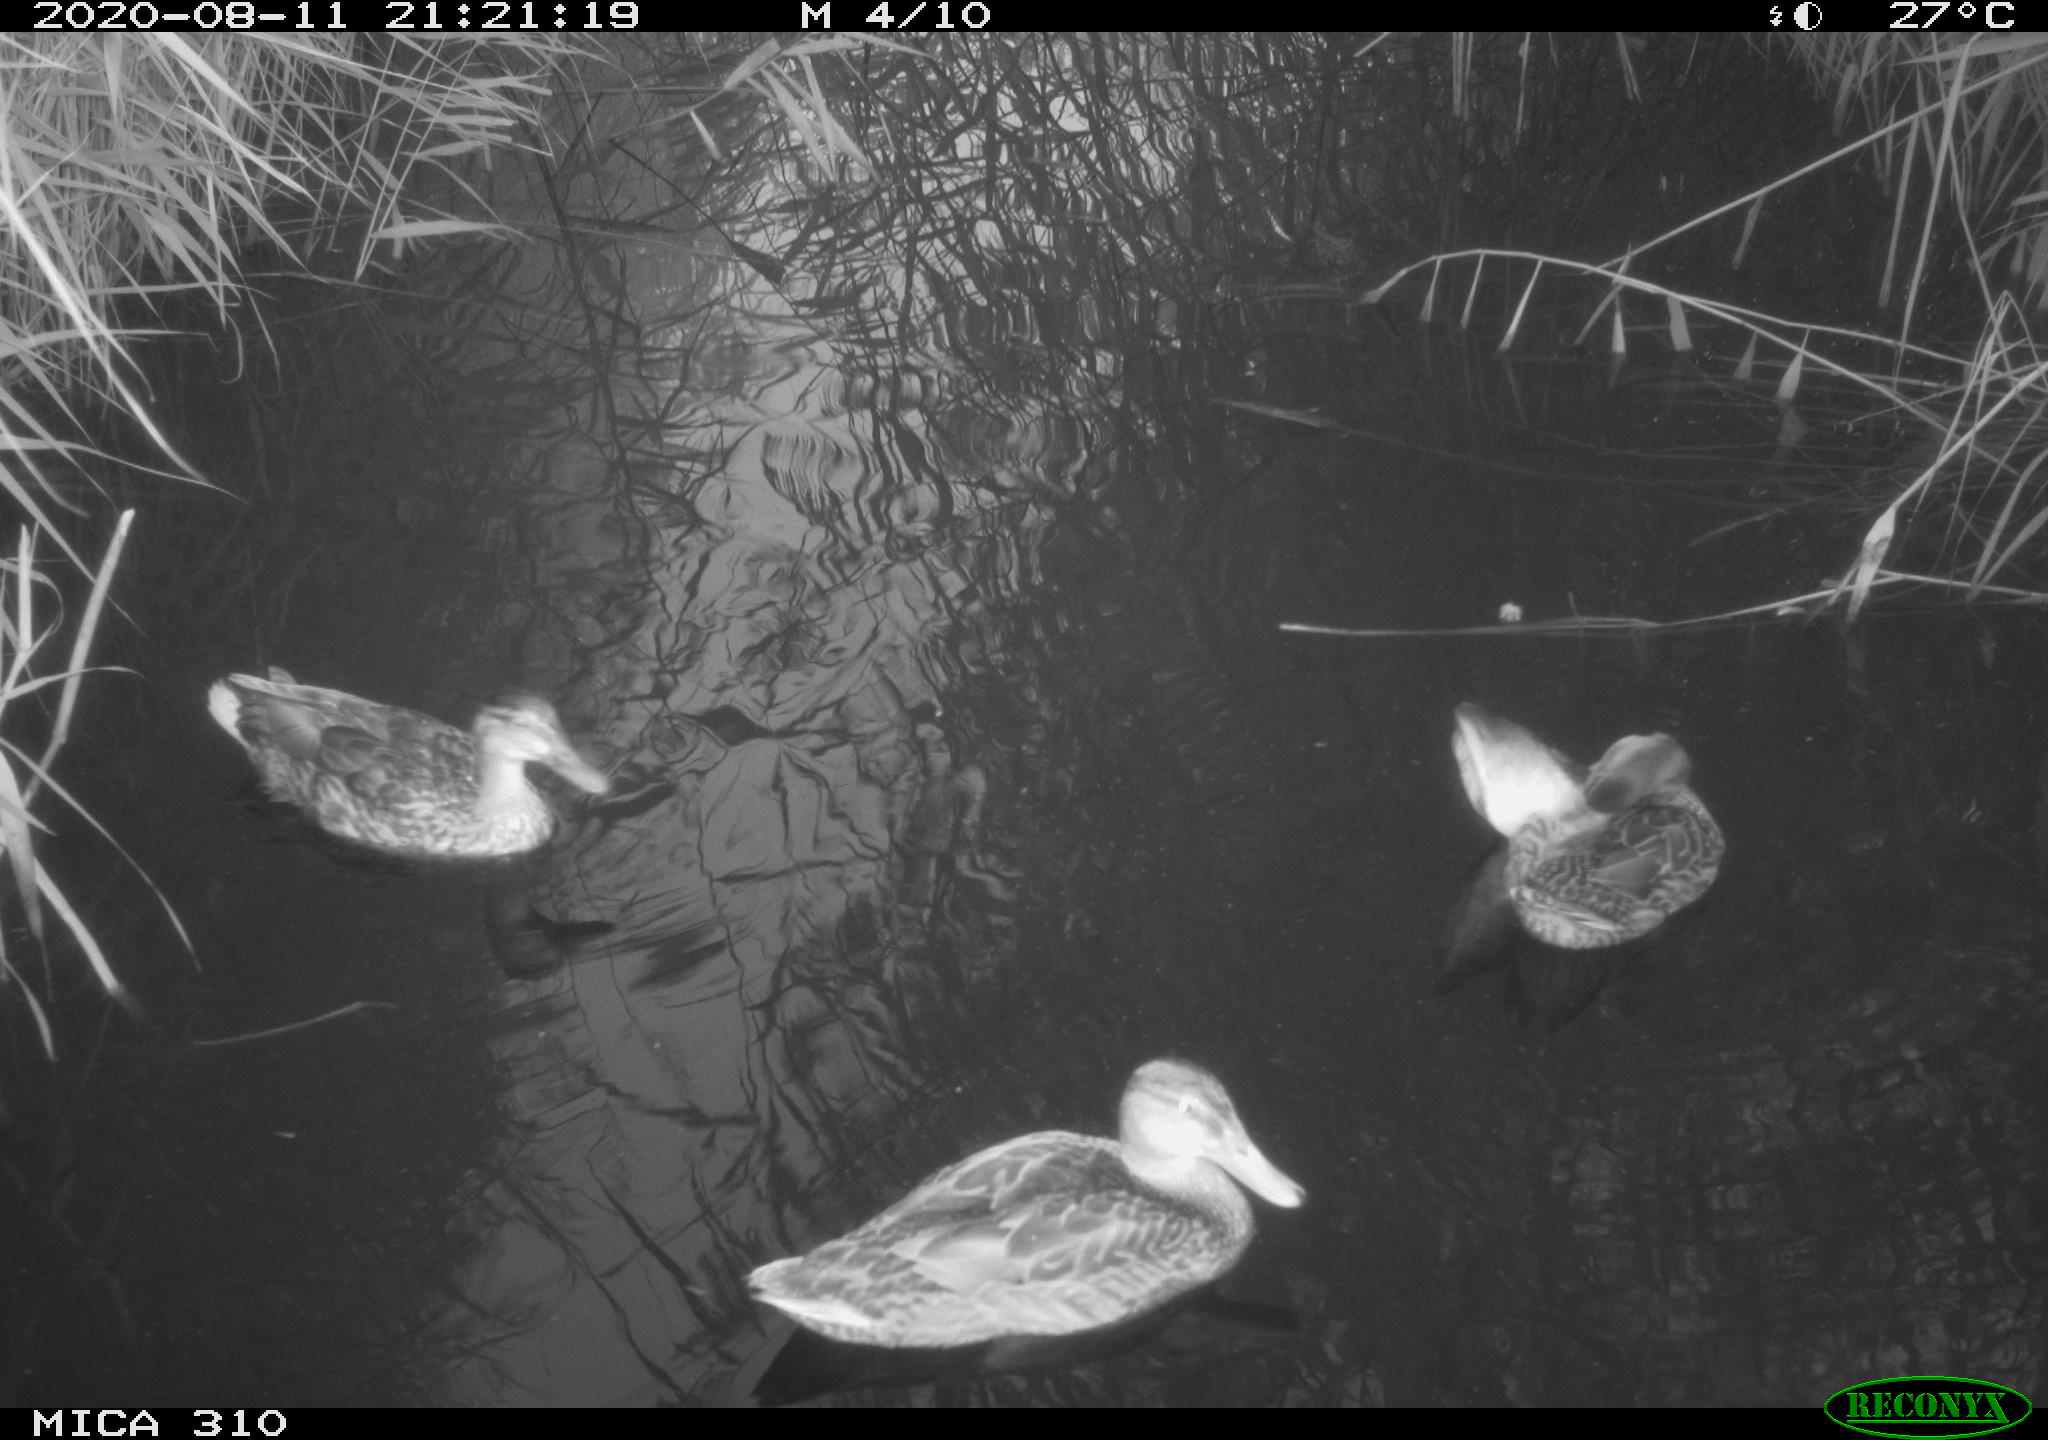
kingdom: Animalia
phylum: Chordata
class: Aves
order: Anseriformes
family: Anatidae
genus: Anas
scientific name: Anas platyrhynchos
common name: Mallard
